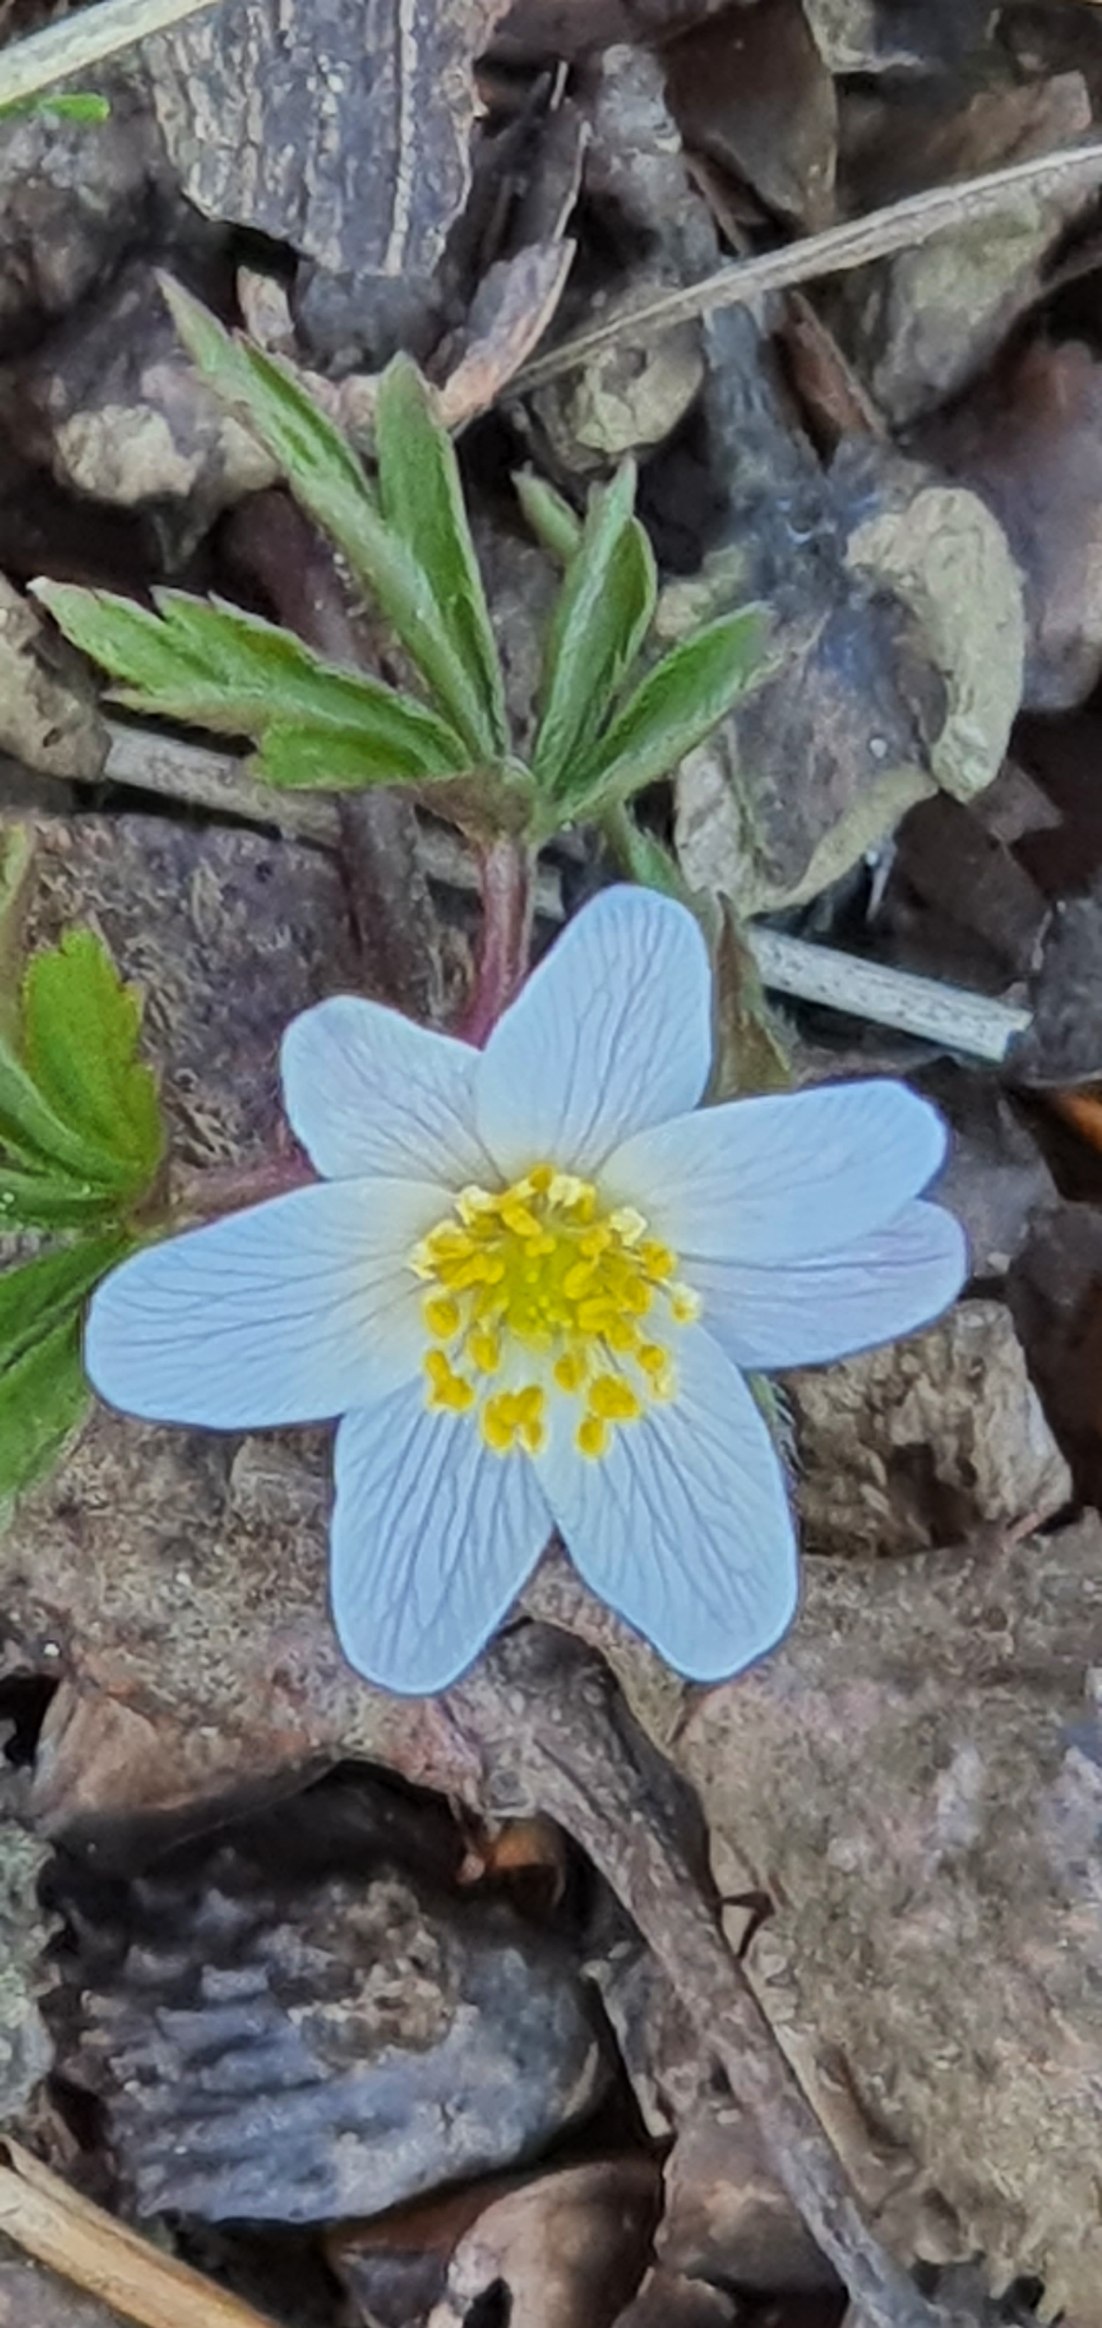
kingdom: Plantae
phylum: Tracheophyta
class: Magnoliopsida
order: Ranunculales
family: Ranunculaceae
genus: Anemone
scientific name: Anemone nemorosa
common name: Hvid anemone
